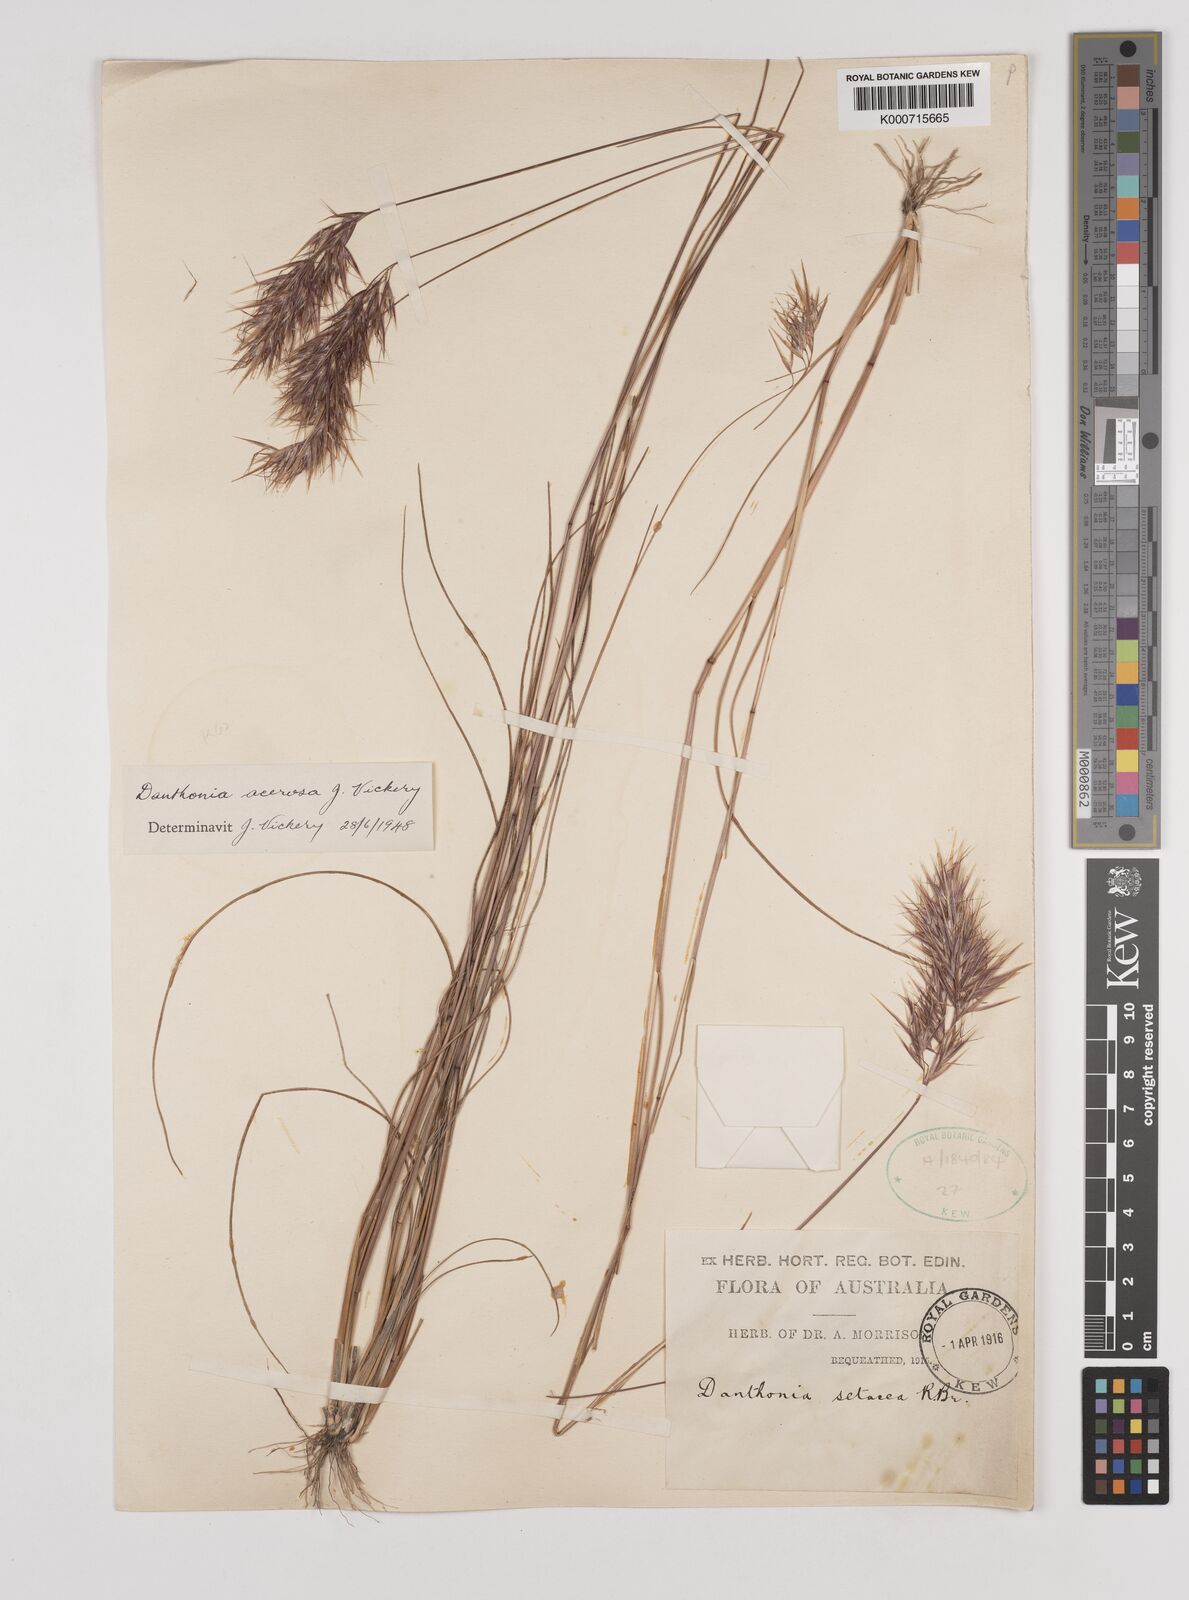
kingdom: Plantae
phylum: Tracheophyta
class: Liliopsida
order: Poales
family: Poaceae
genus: Rytidosperma
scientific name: Rytidosperma acerosum
